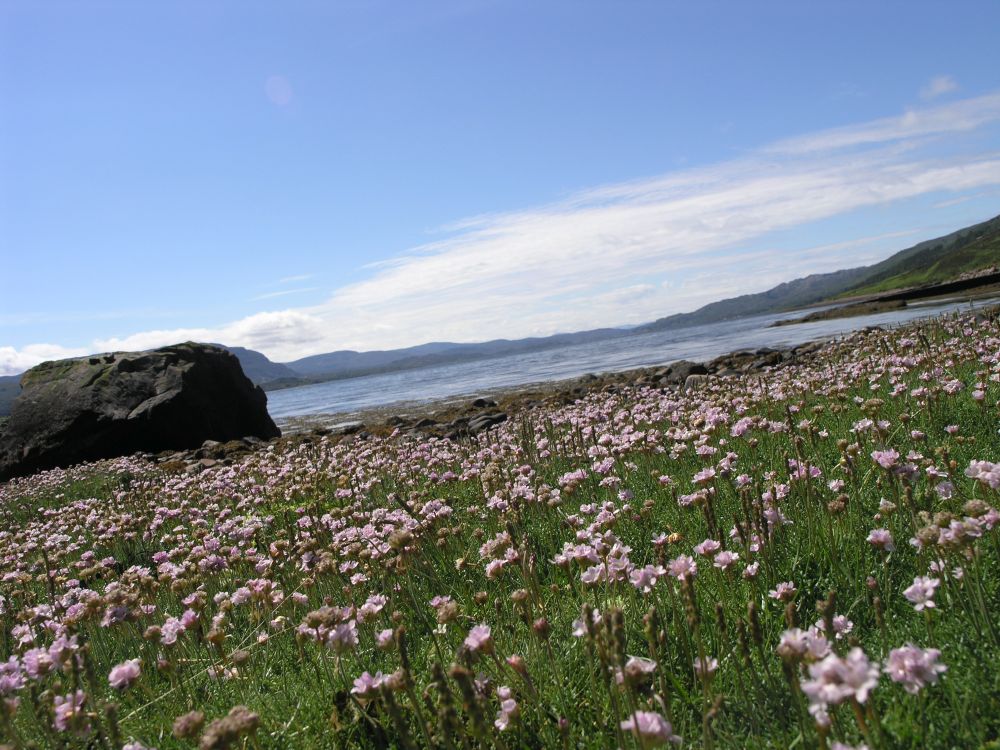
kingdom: Plantae
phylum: Tracheophyta
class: Magnoliopsida
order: Caryophyllales
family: Plumbaginaceae
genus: Armeria
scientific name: Armeria maritima
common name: Thrift
